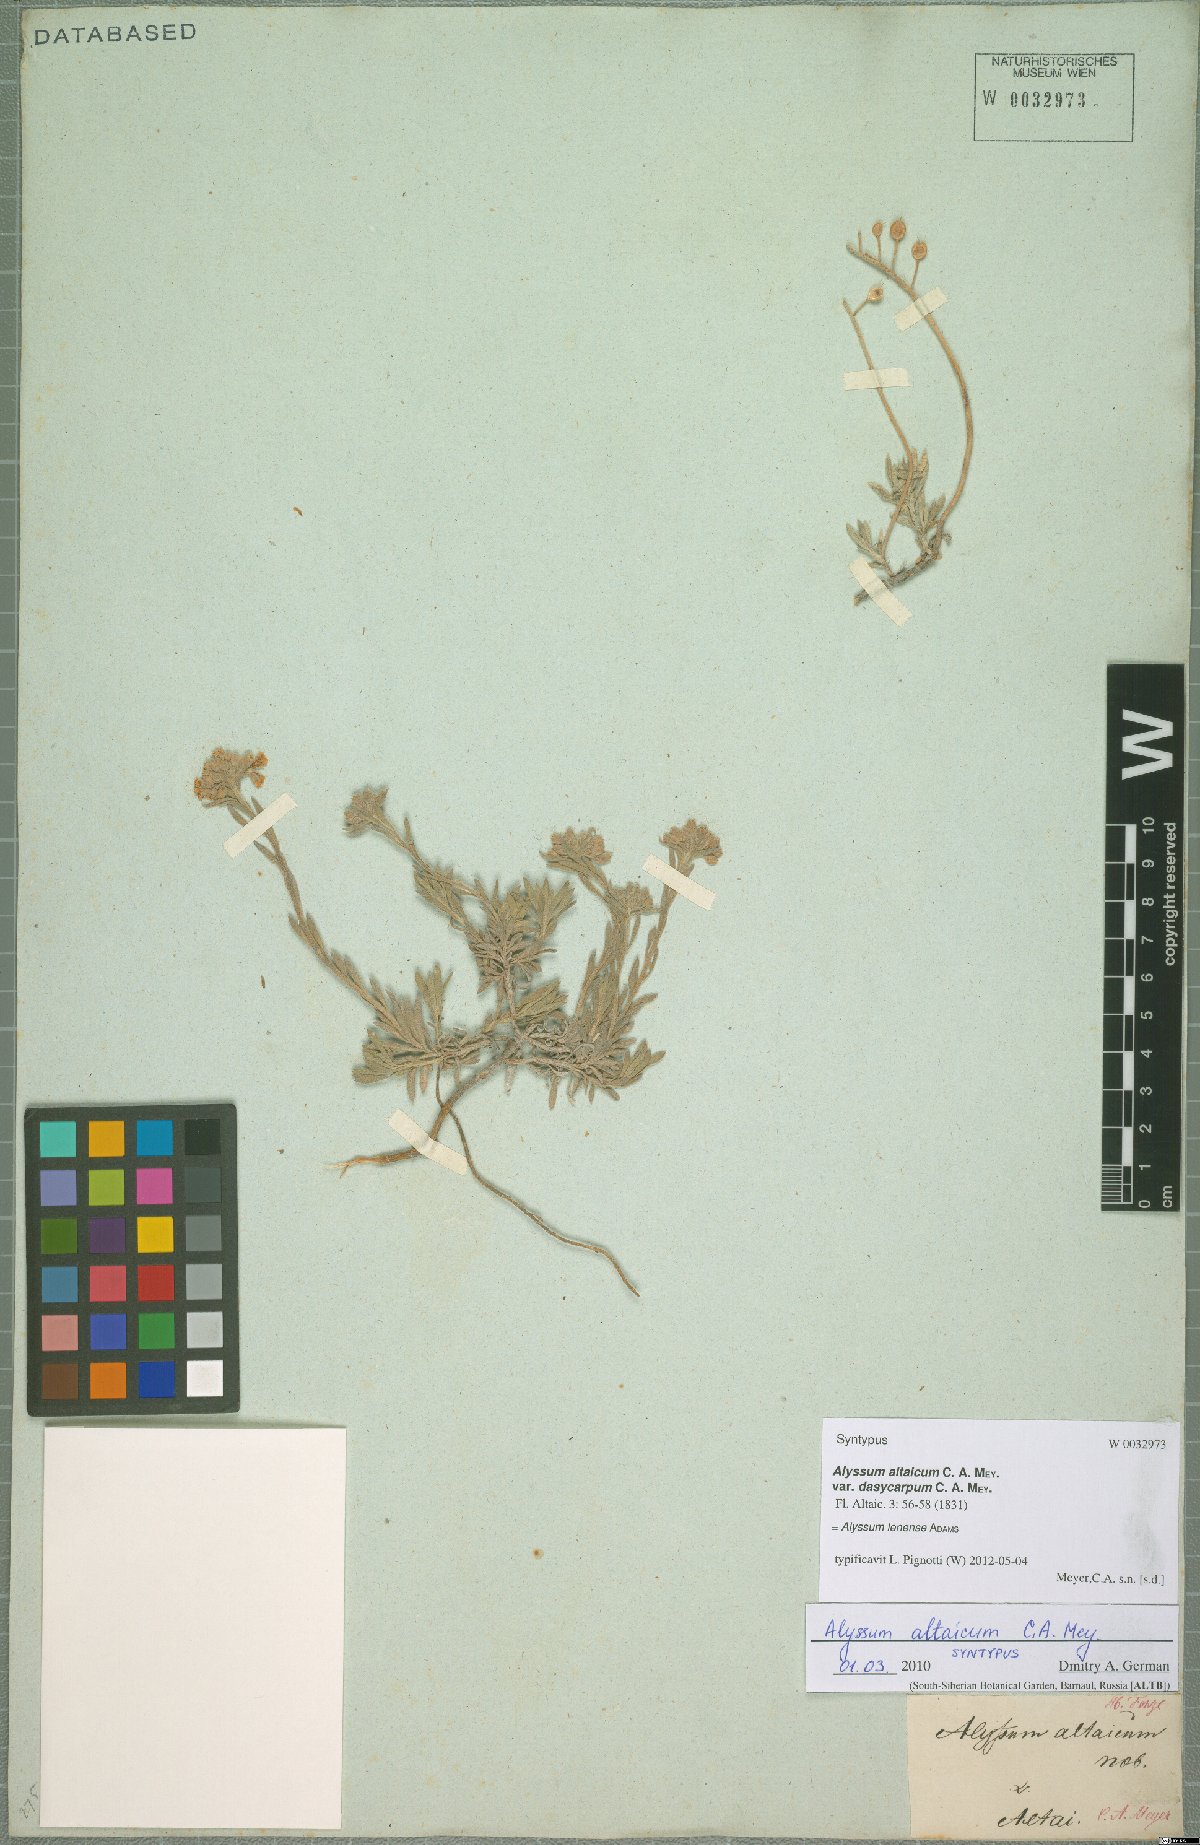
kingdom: Plantae
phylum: Tracheophyta
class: Magnoliopsida
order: Brassicales
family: Brassicaceae
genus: Alyssum
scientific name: Alyssum lenense
